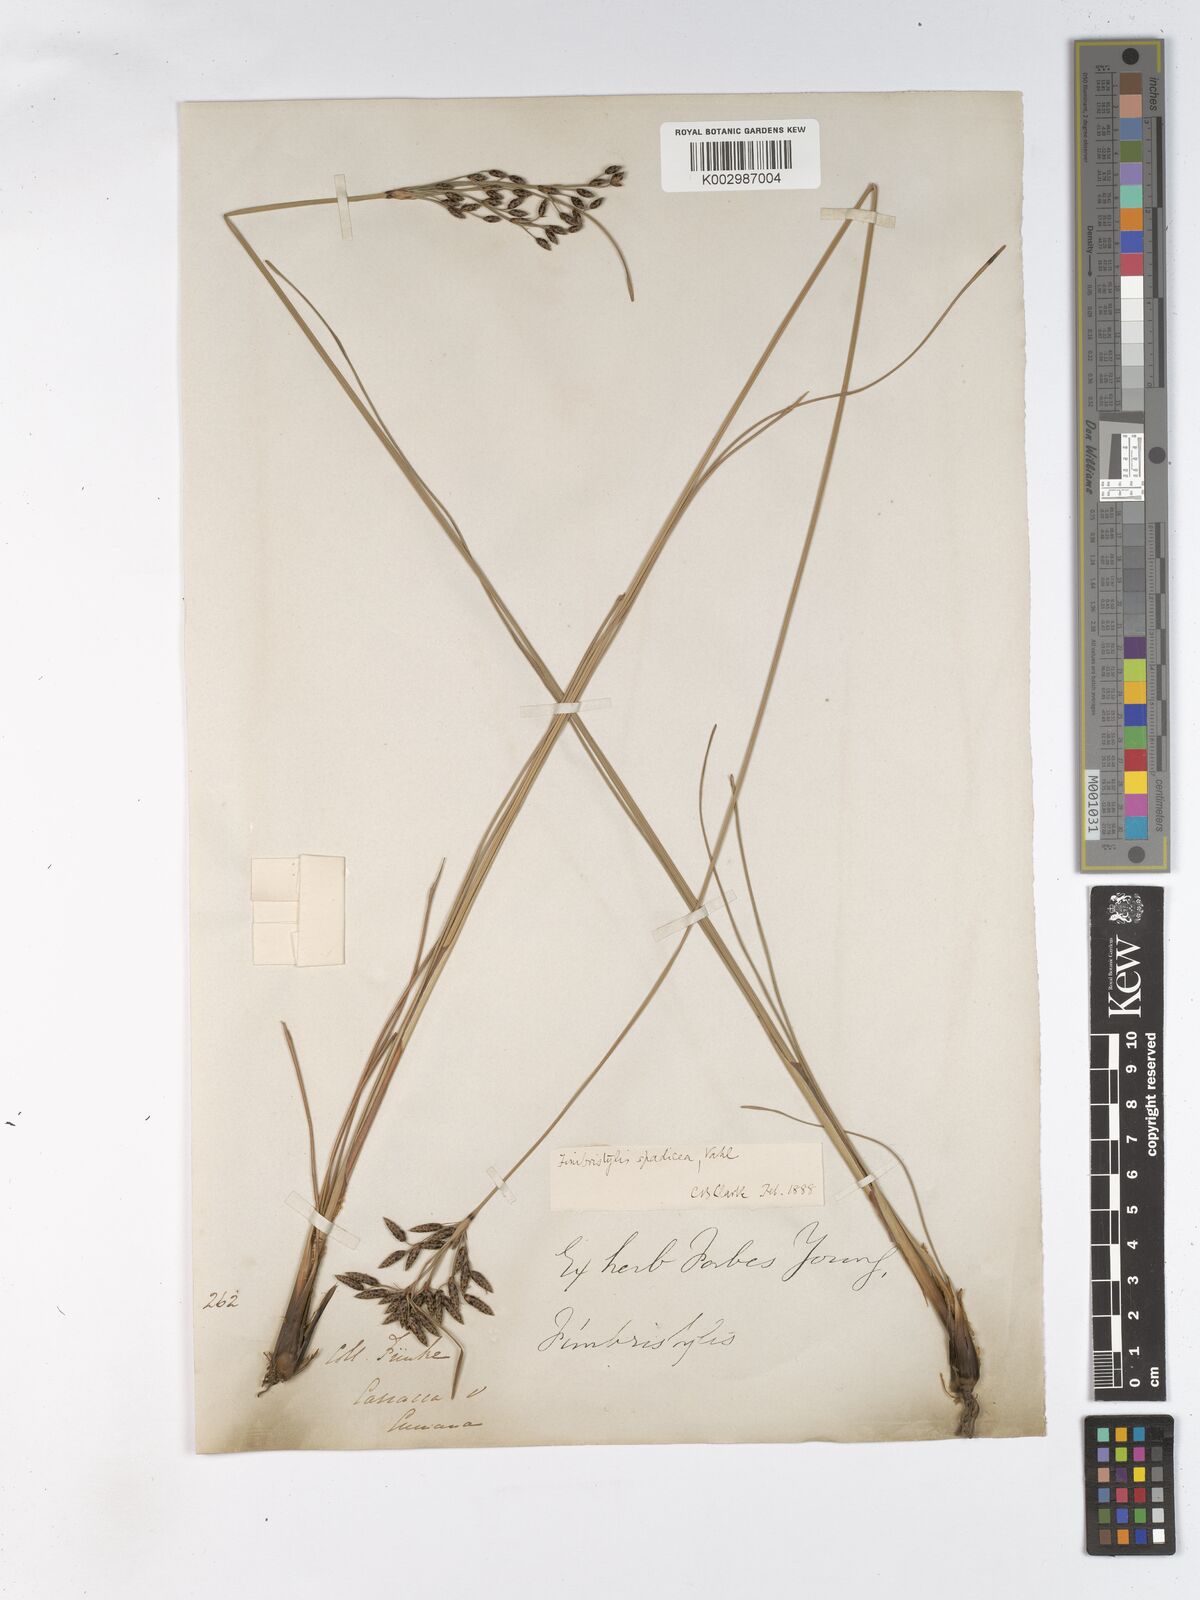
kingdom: Plantae
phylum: Tracheophyta
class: Liliopsida
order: Poales
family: Cyperaceae
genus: Fimbristylis
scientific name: Fimbristylis spadicea
